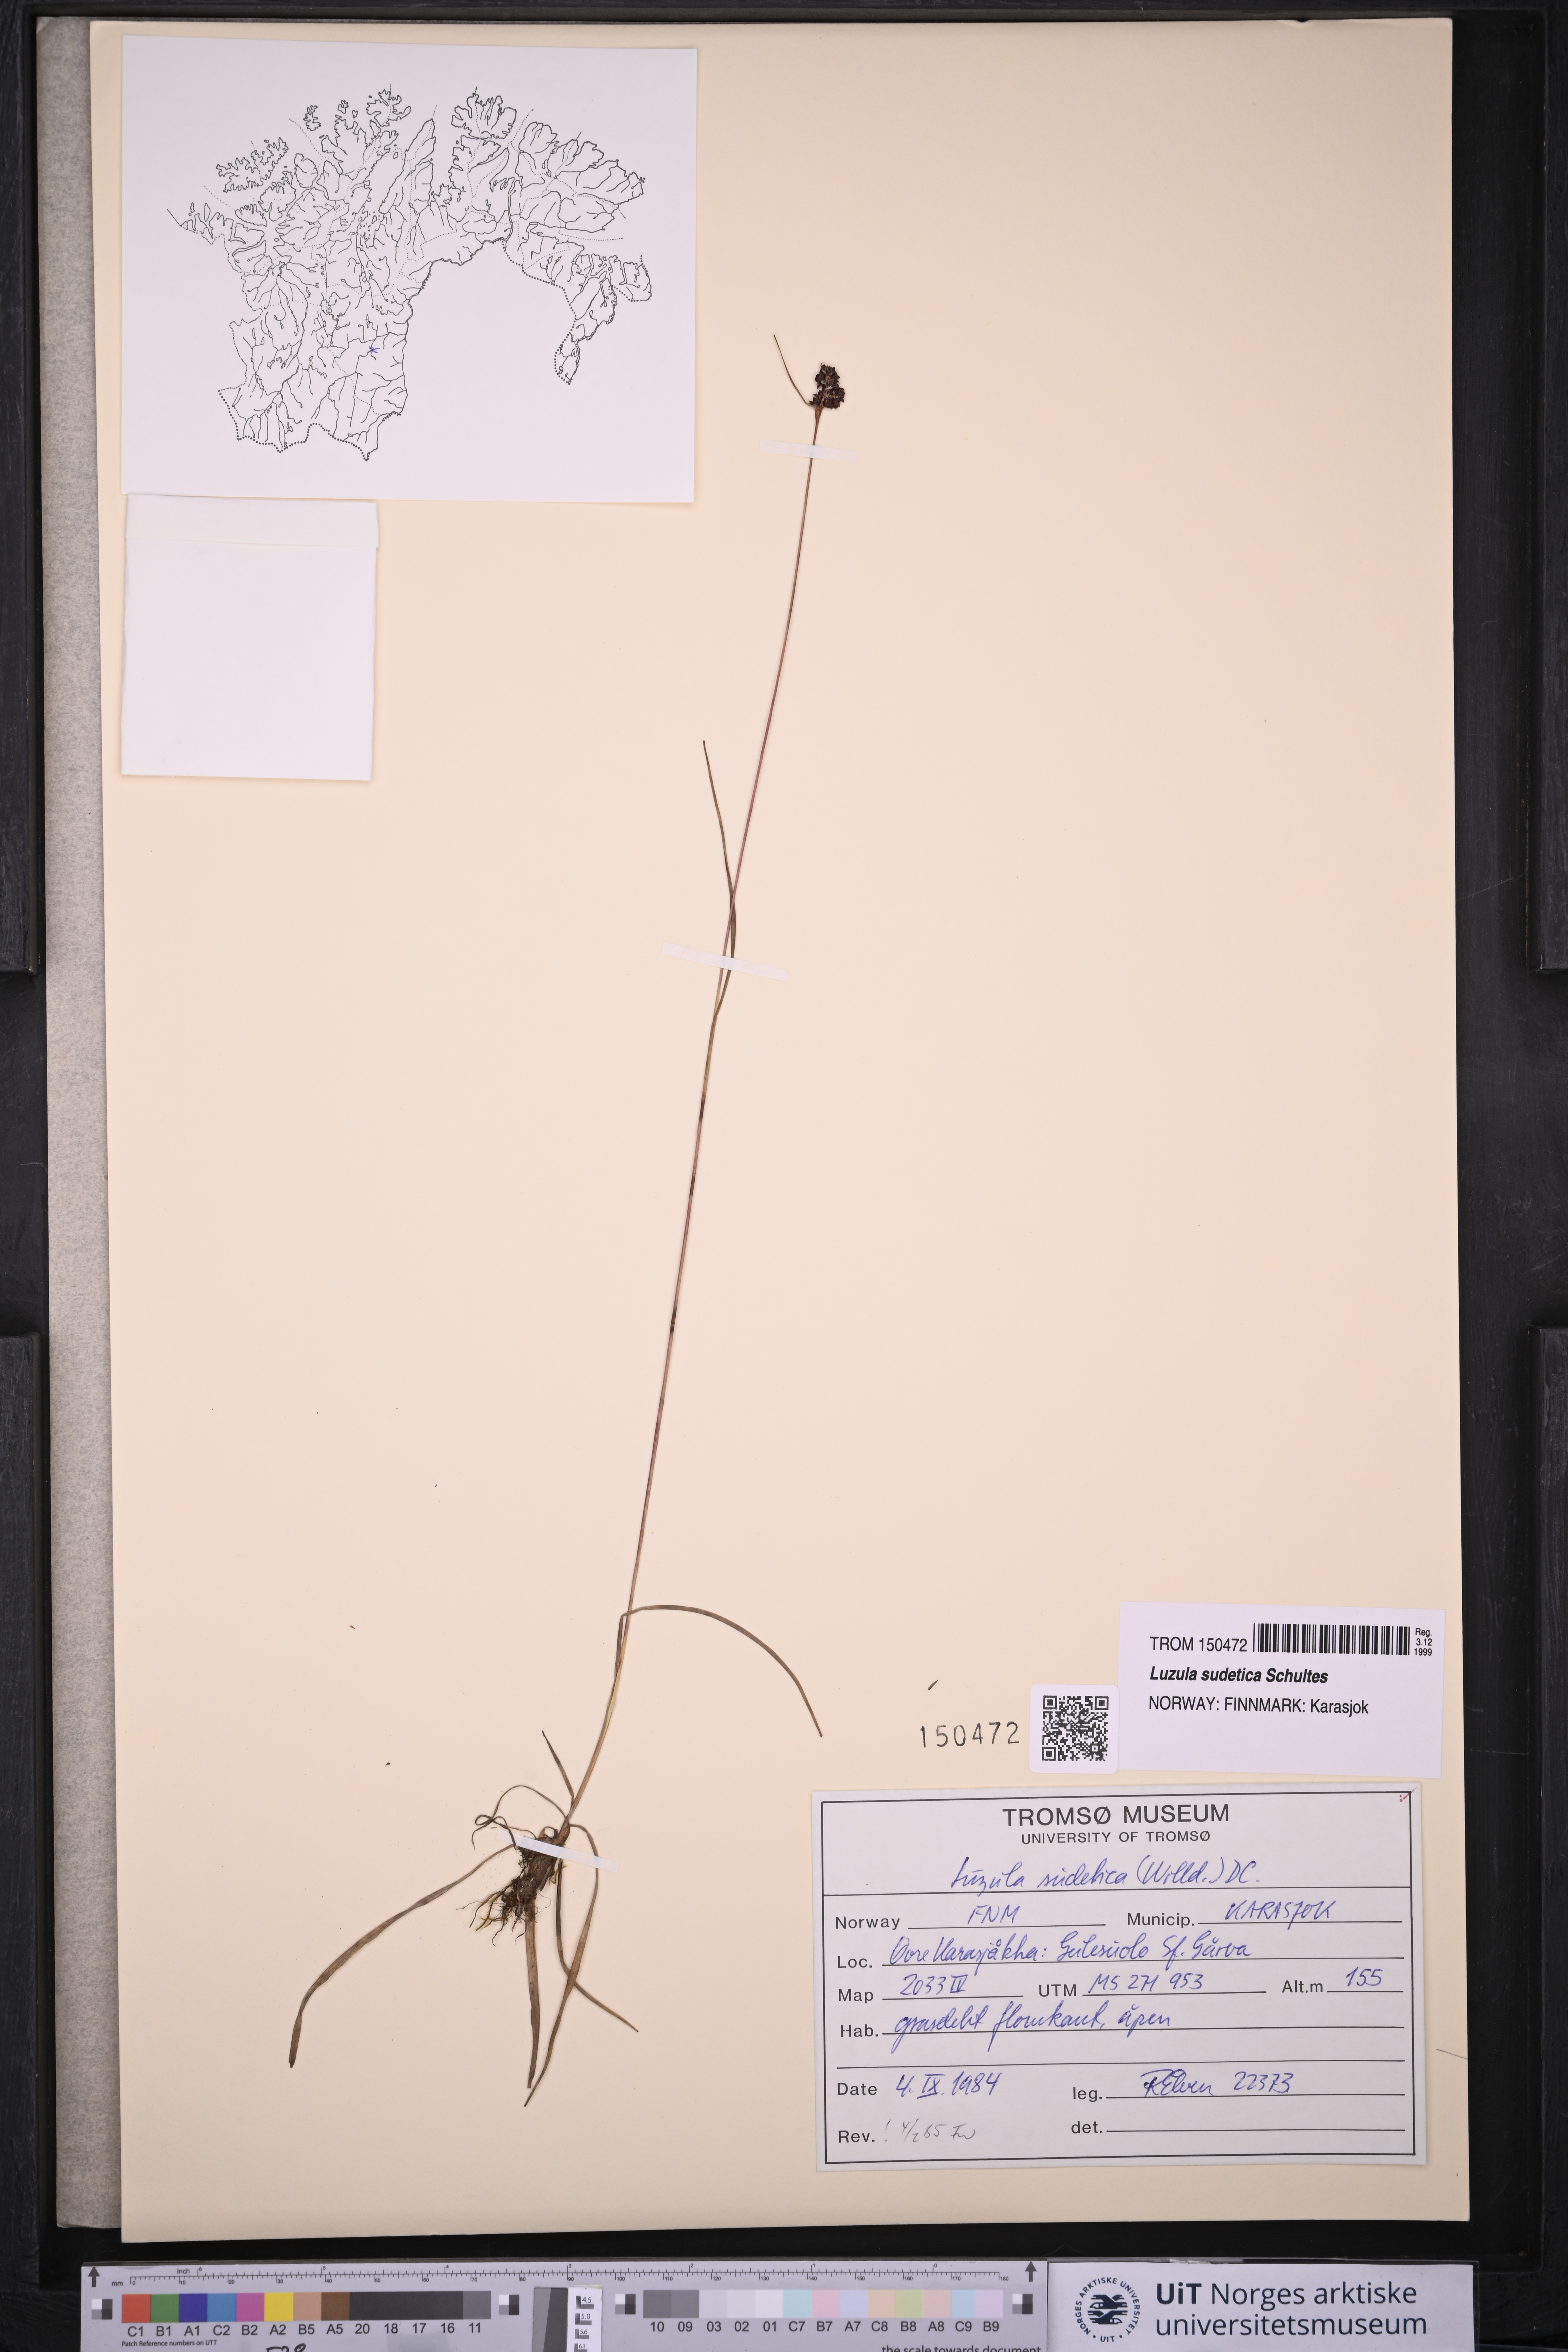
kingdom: Plantae
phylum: Tracheophyta
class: Liliopsida
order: Poales
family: Juncaceae
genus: Luzula
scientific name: Luzula sudetica
